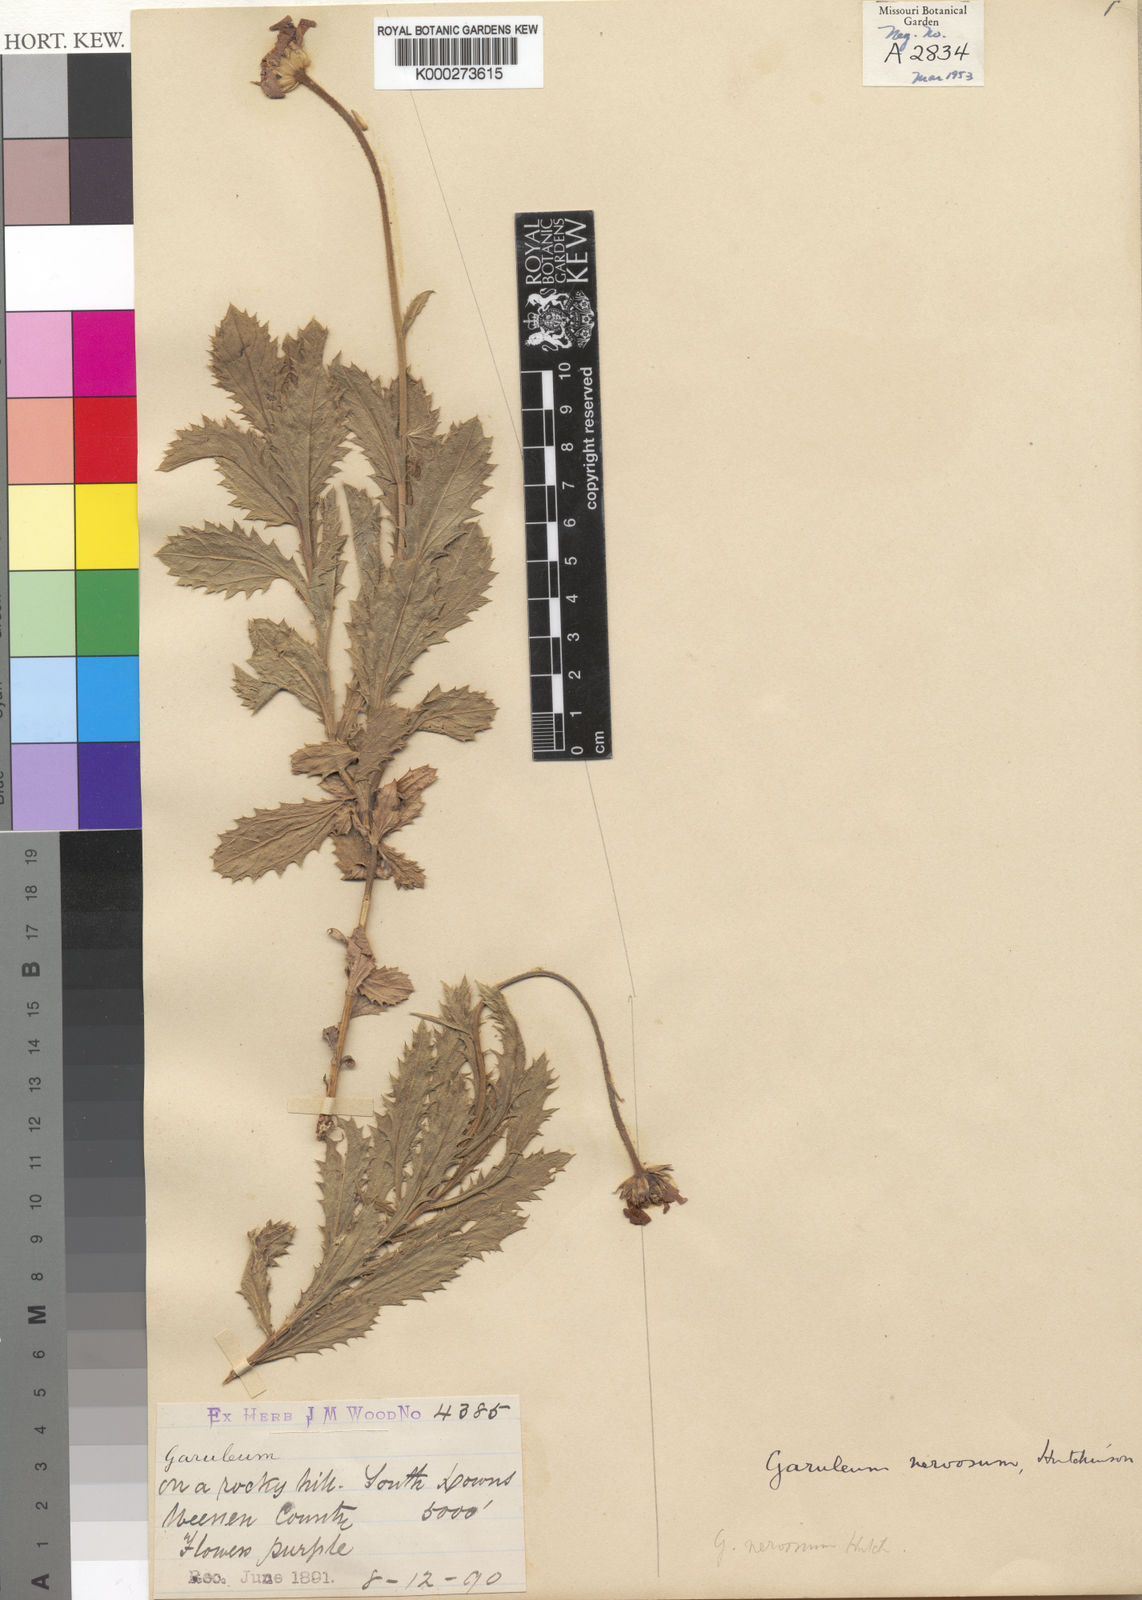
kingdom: Plantae
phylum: Tracheophyta
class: Magnoliopsida
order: Asterales
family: Asteraceae
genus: Garuleum
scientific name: Garuleum
